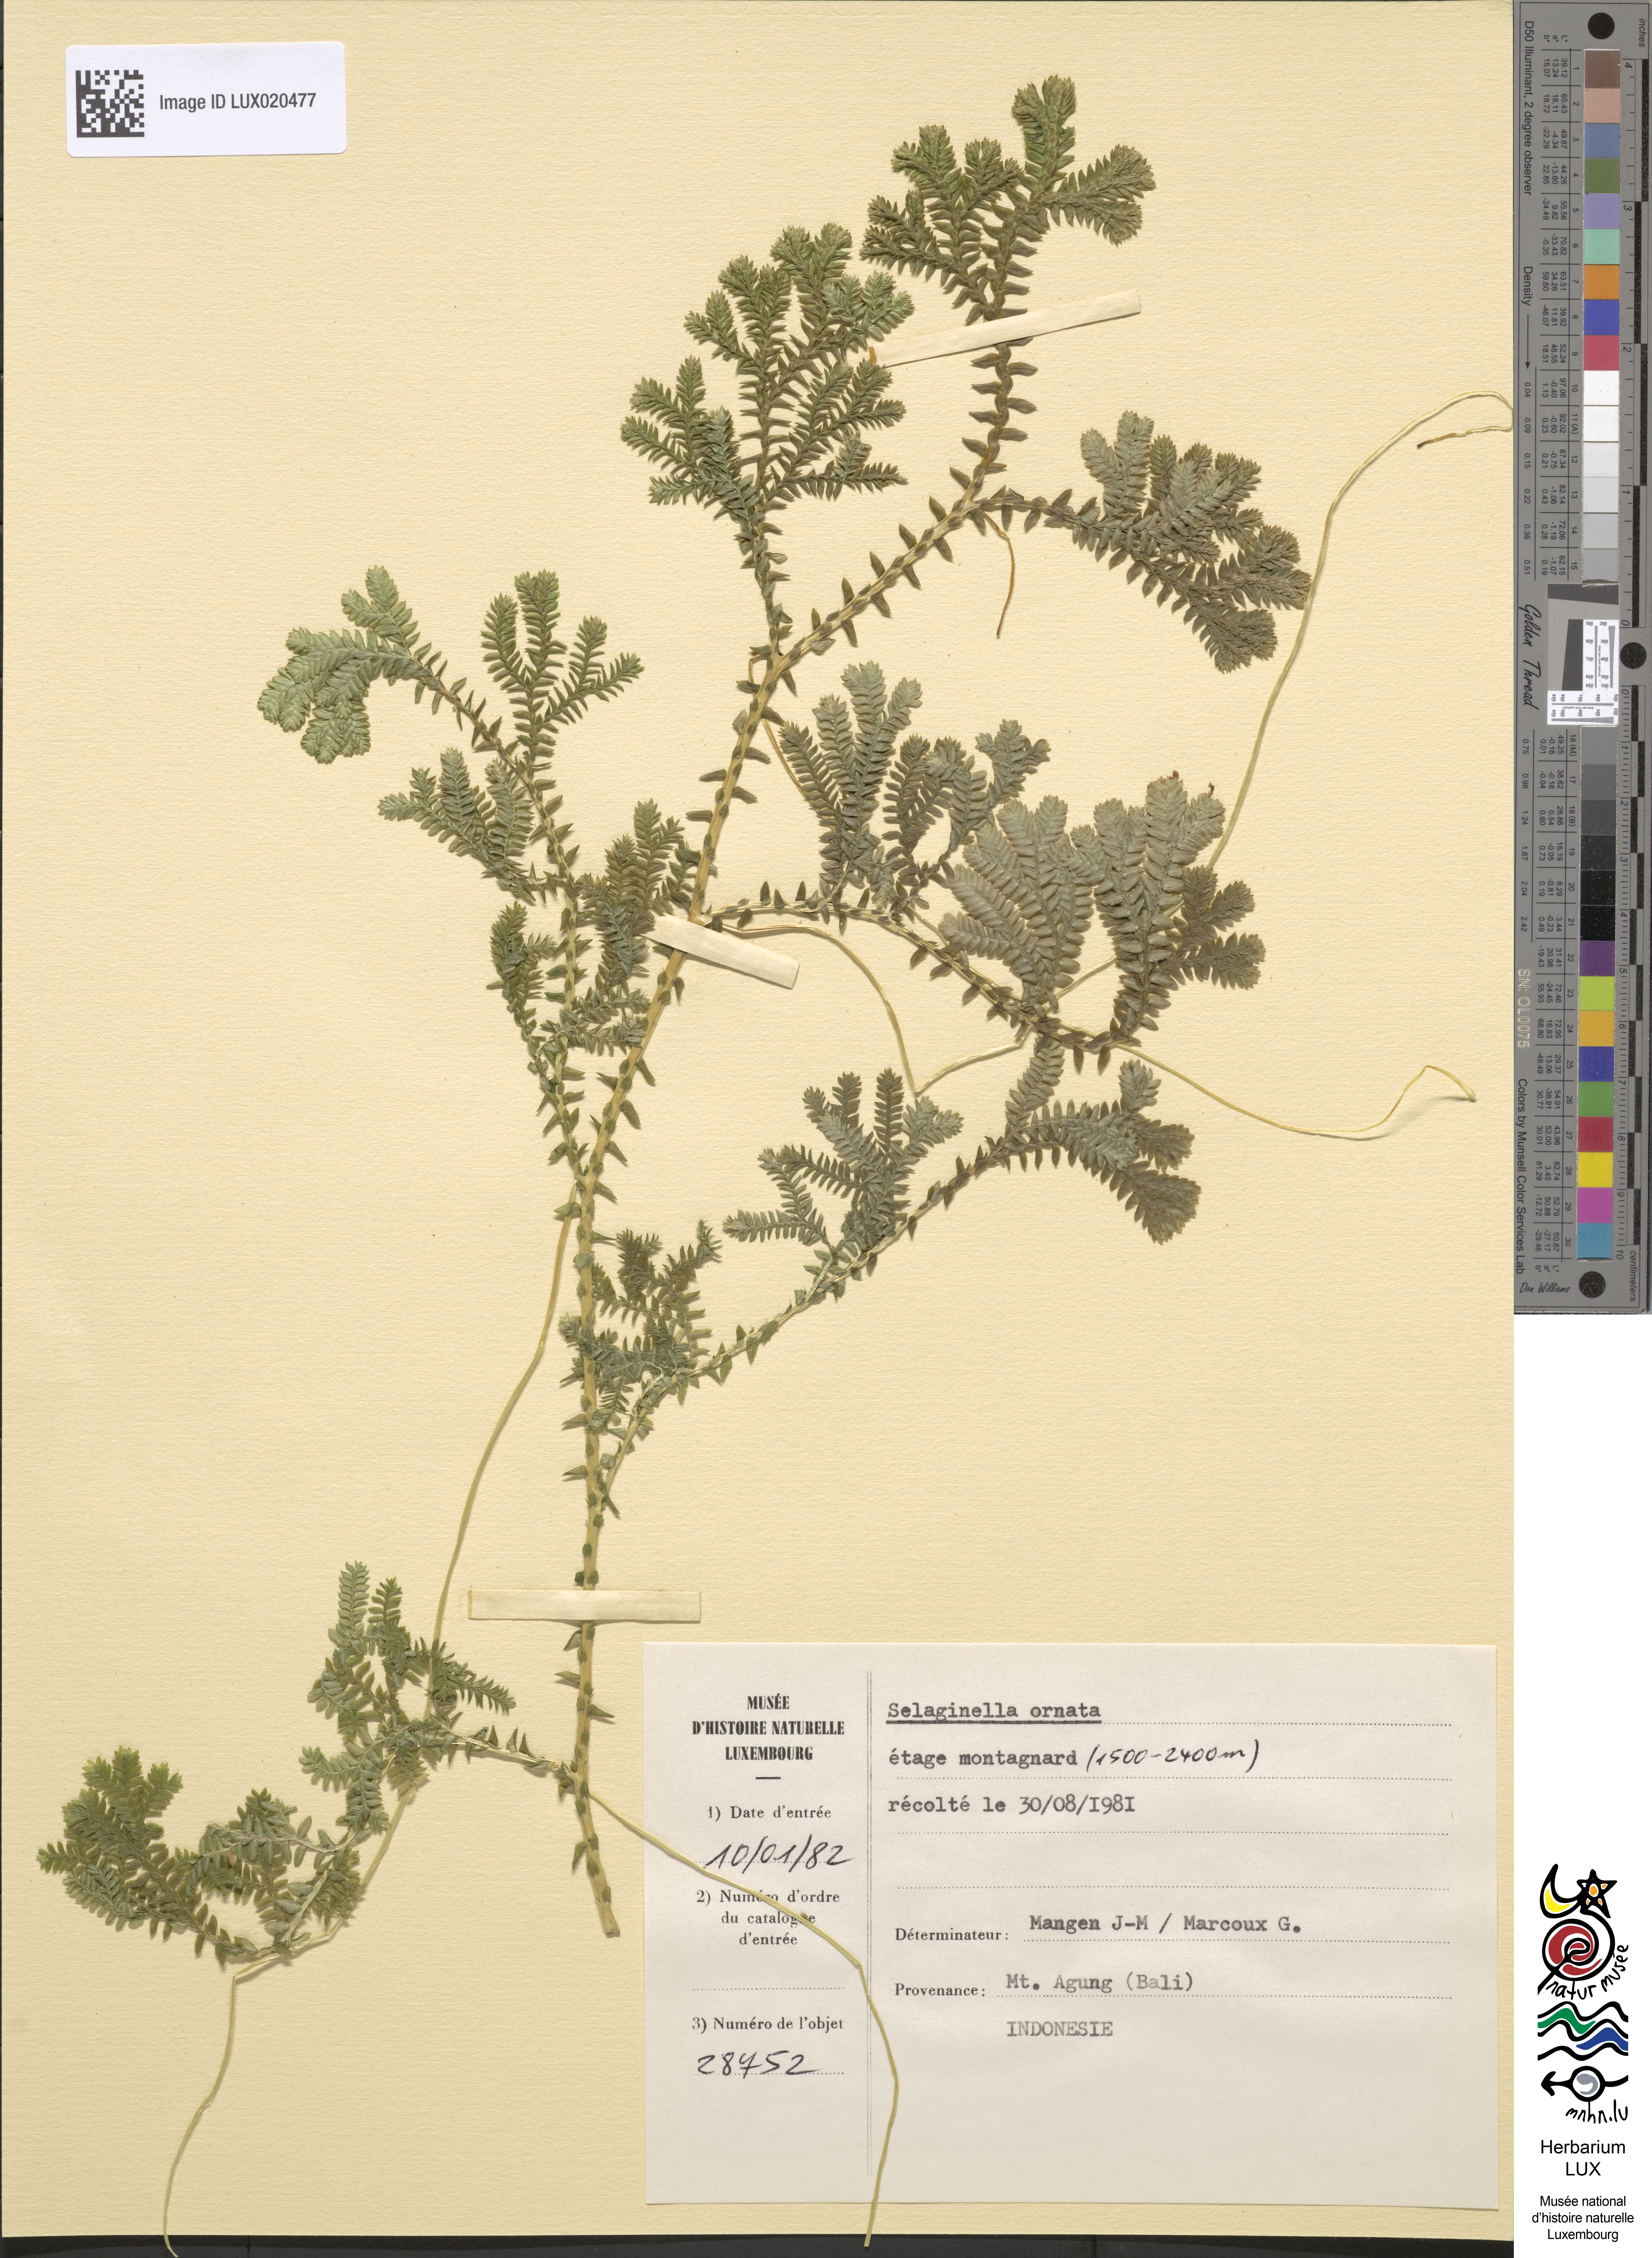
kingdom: Plantae
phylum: Tracheophyta
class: Lycopodiopsida
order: Selaginellales
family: Selaginellaceae
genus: Selaginella
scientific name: Selaginella ornata
